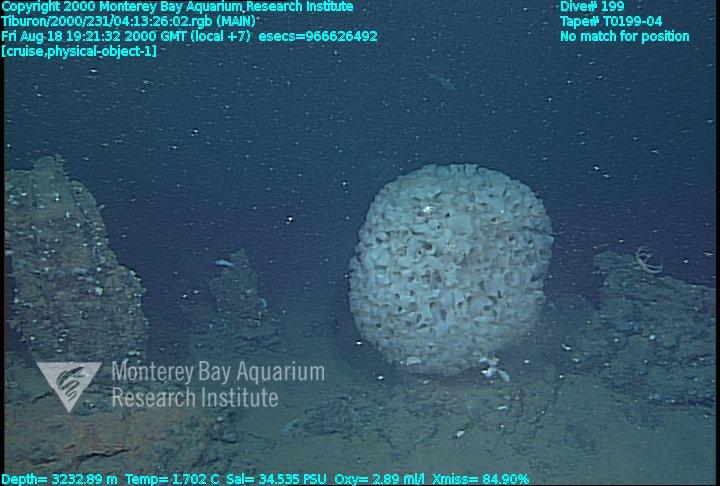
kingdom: Animalia
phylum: Porifera
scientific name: Porifera
